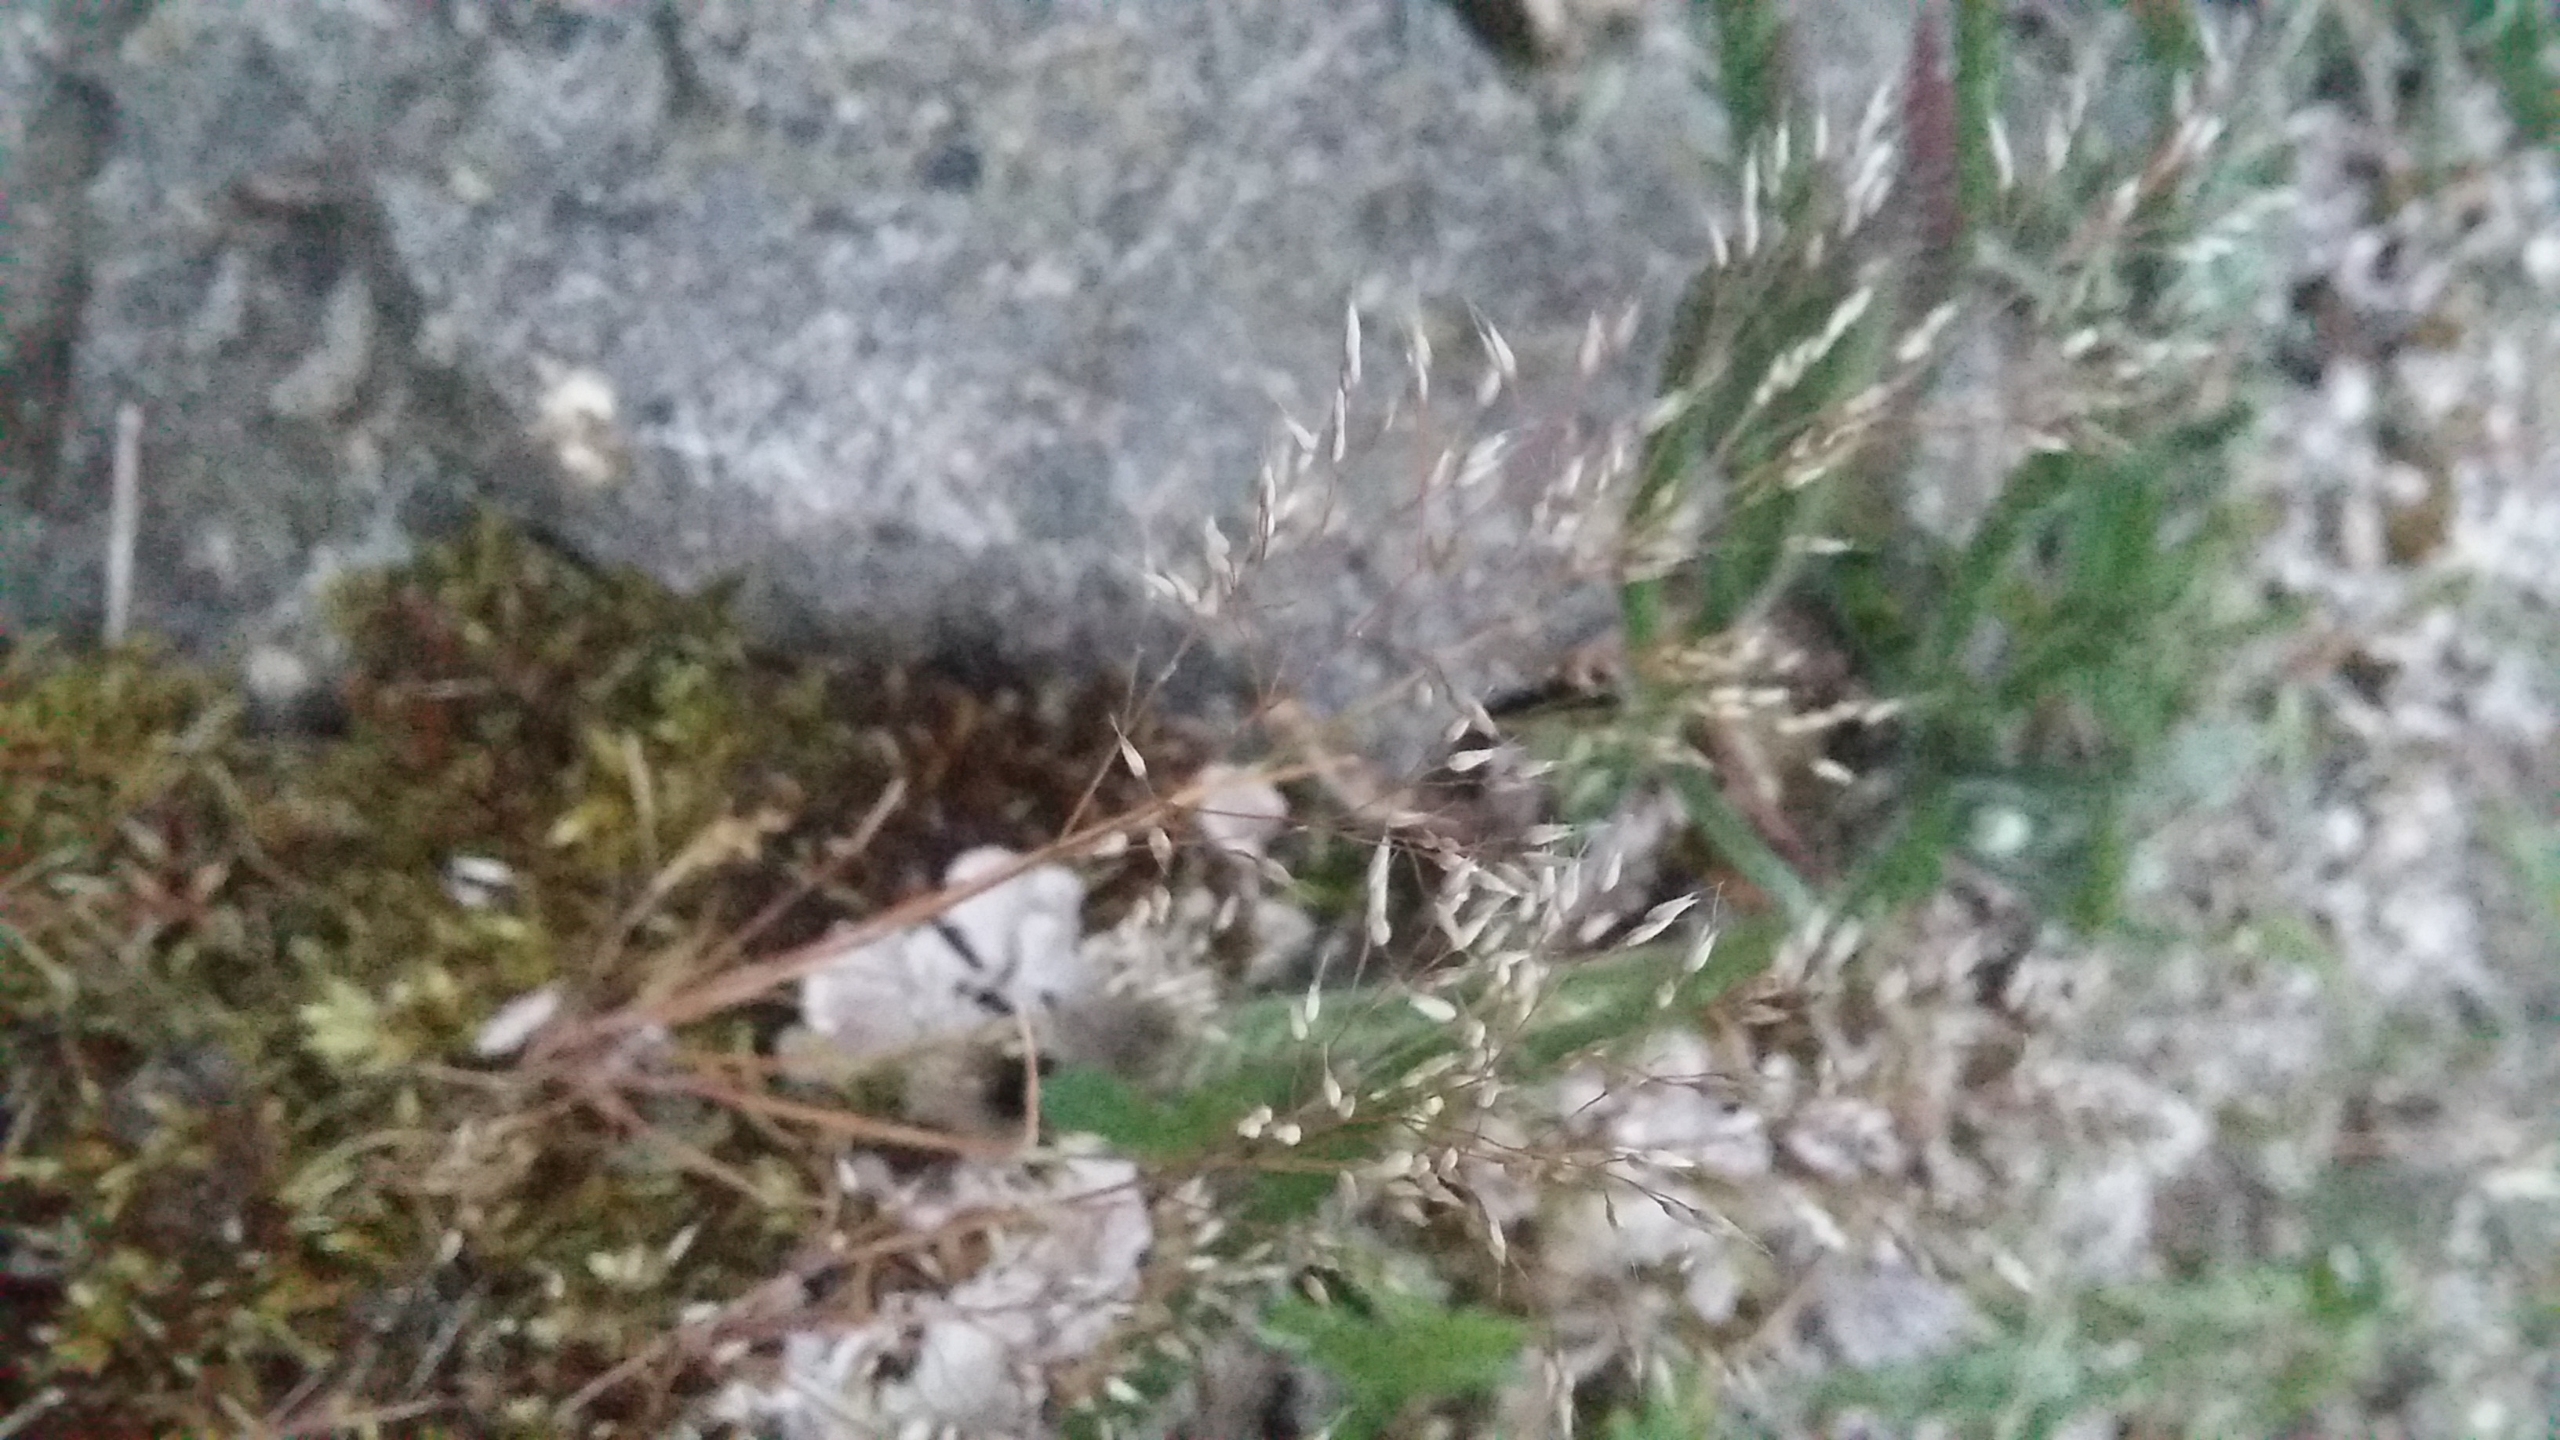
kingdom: Plantae
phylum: Tracheophyta
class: Liliopsida
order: Poales
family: Poaceae
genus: Aira
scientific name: Aira caryophyllea
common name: Udspærret dværgbunke
